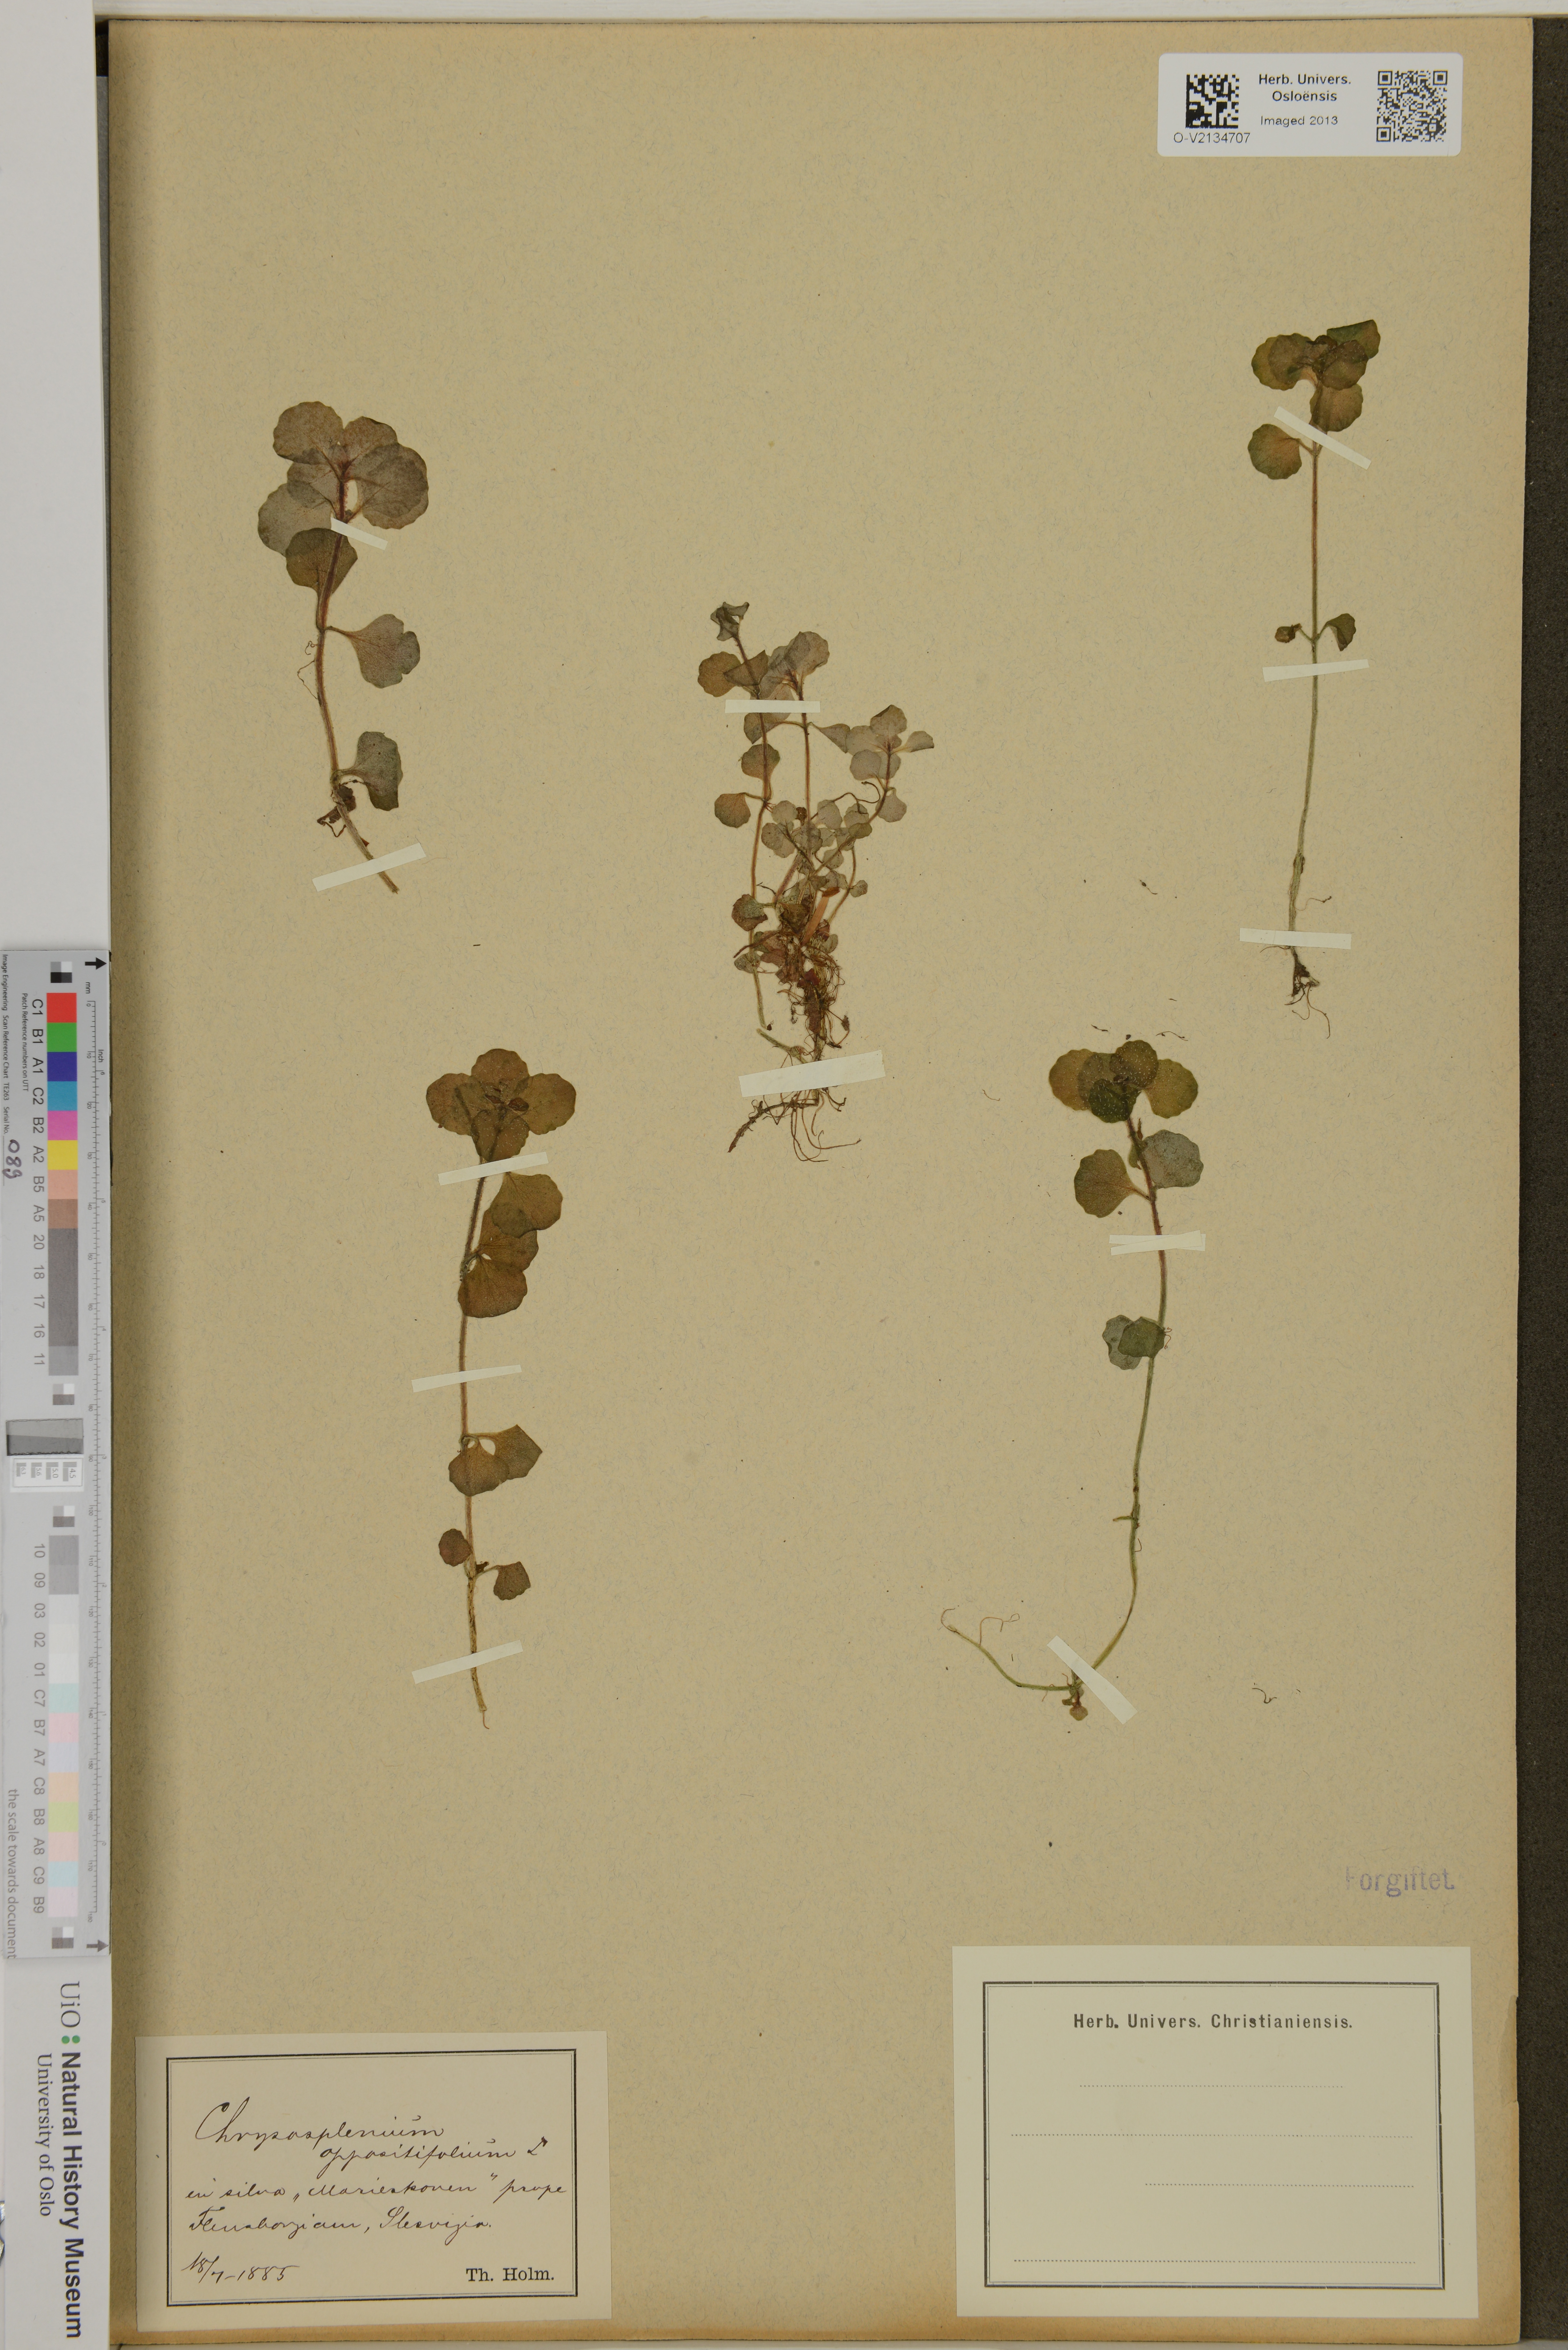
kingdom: Plantae
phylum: Tracheophyta
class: Magnoliopsida
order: Saxifragales
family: Saxifragaceae
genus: Chrysosplenium
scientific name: Chrysosplenium oppositifolium
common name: Opposite-leaved golden-saxifrage
